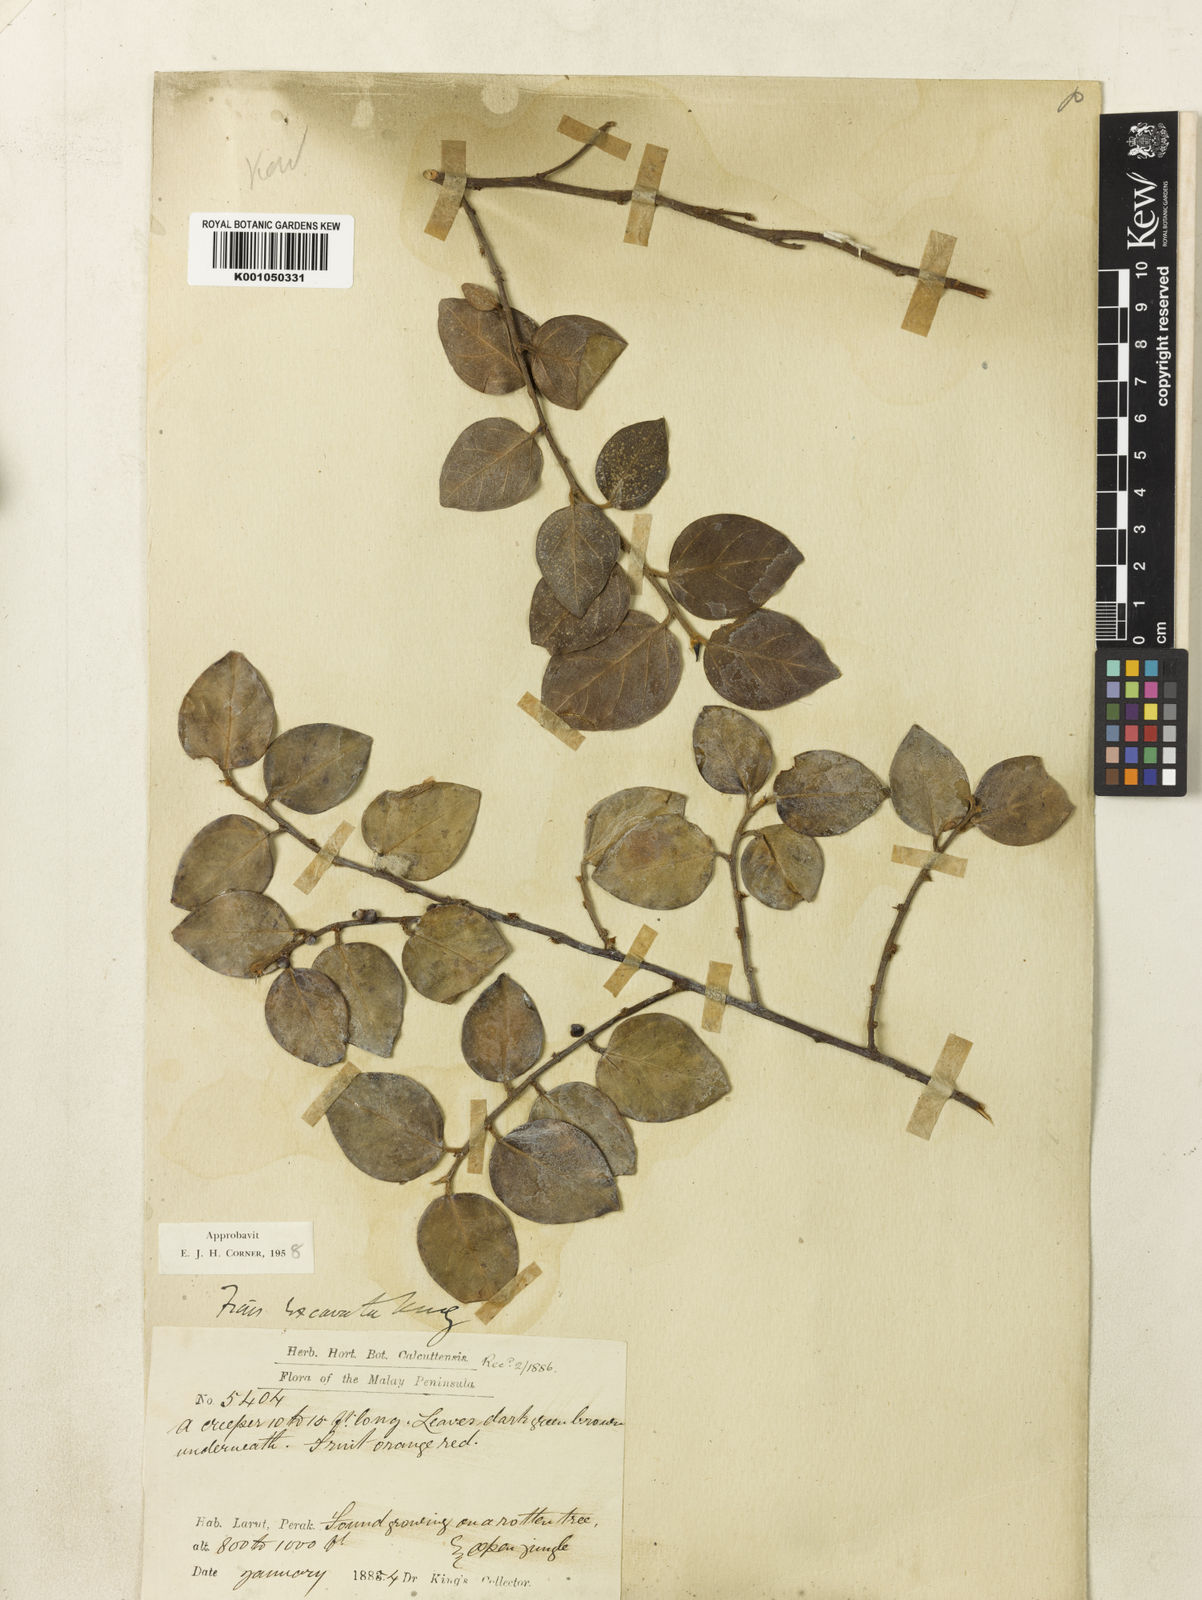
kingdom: Plantae
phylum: Tracheophyta
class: Magnoliopsida
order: Rosales
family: Moraceae
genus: Ficus
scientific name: Ficus excavata
